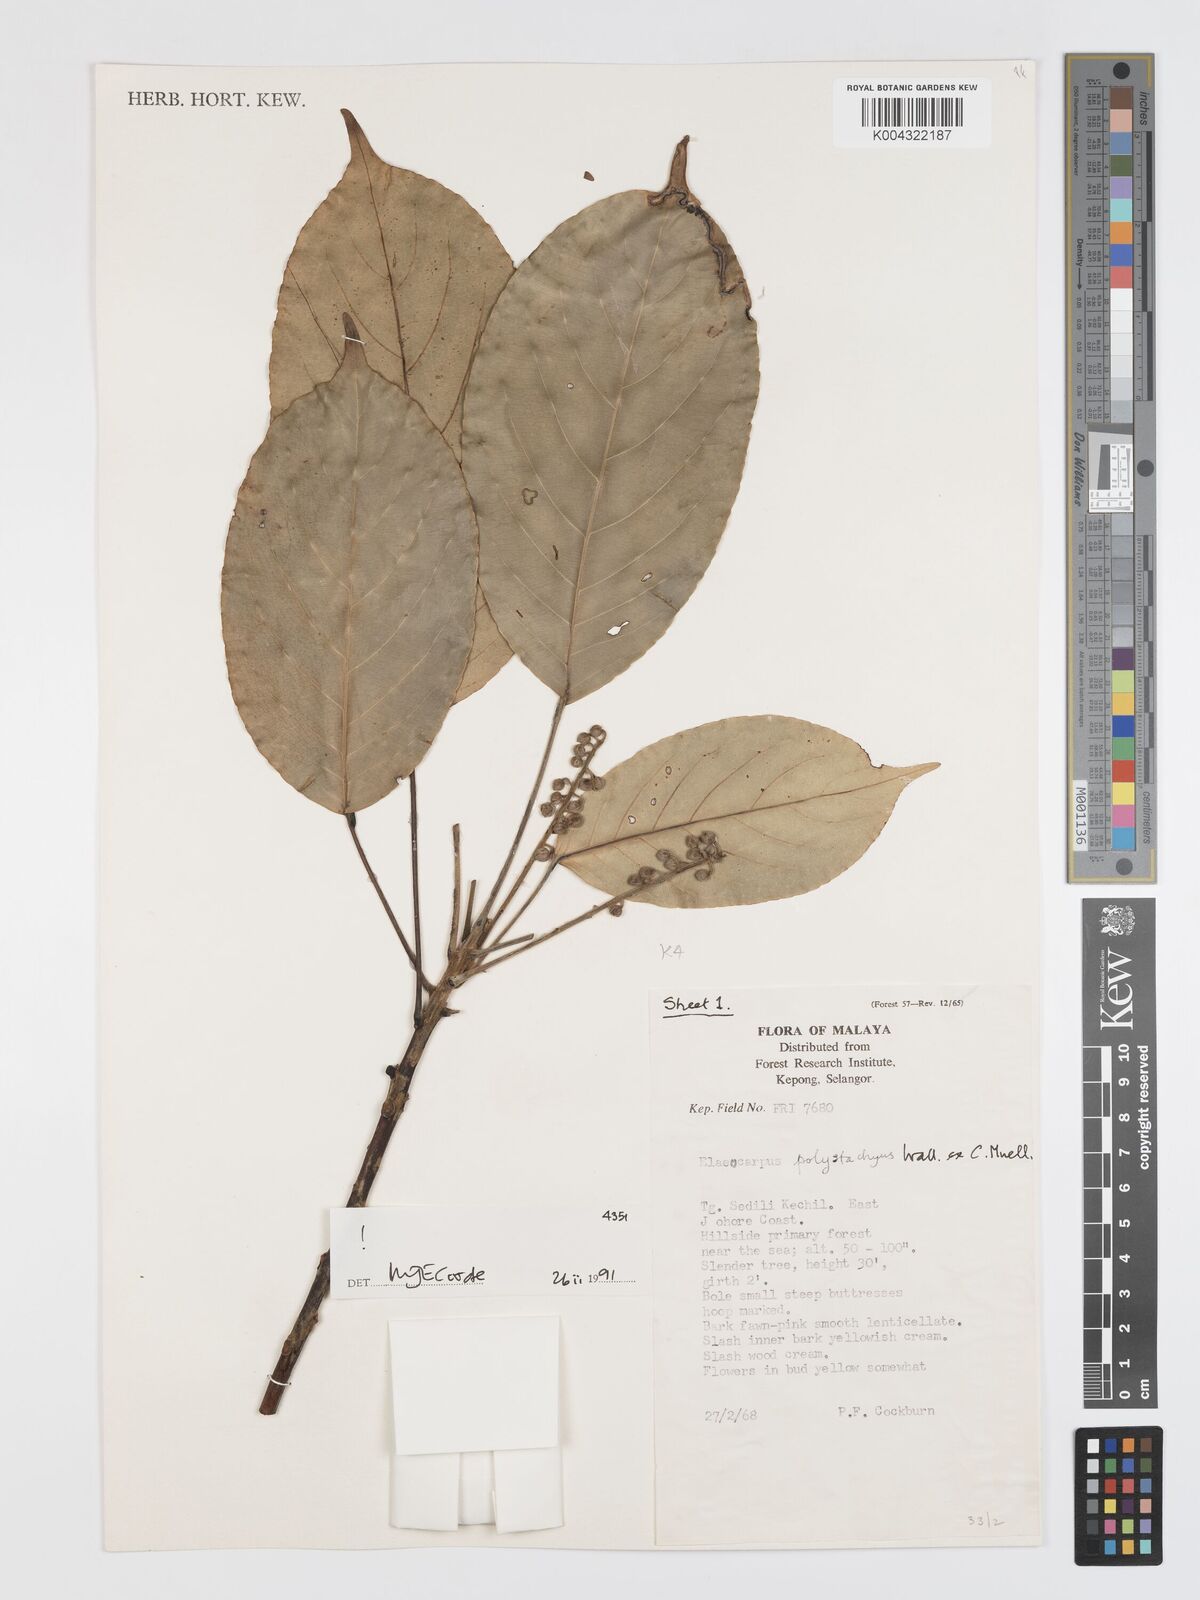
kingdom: Plantae
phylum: Tracheophyta
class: Magnoliopsida
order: Oxalidales
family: Elaeocarpaceae
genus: Elaeocarpus
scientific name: Elaeocarpus polystachyus
